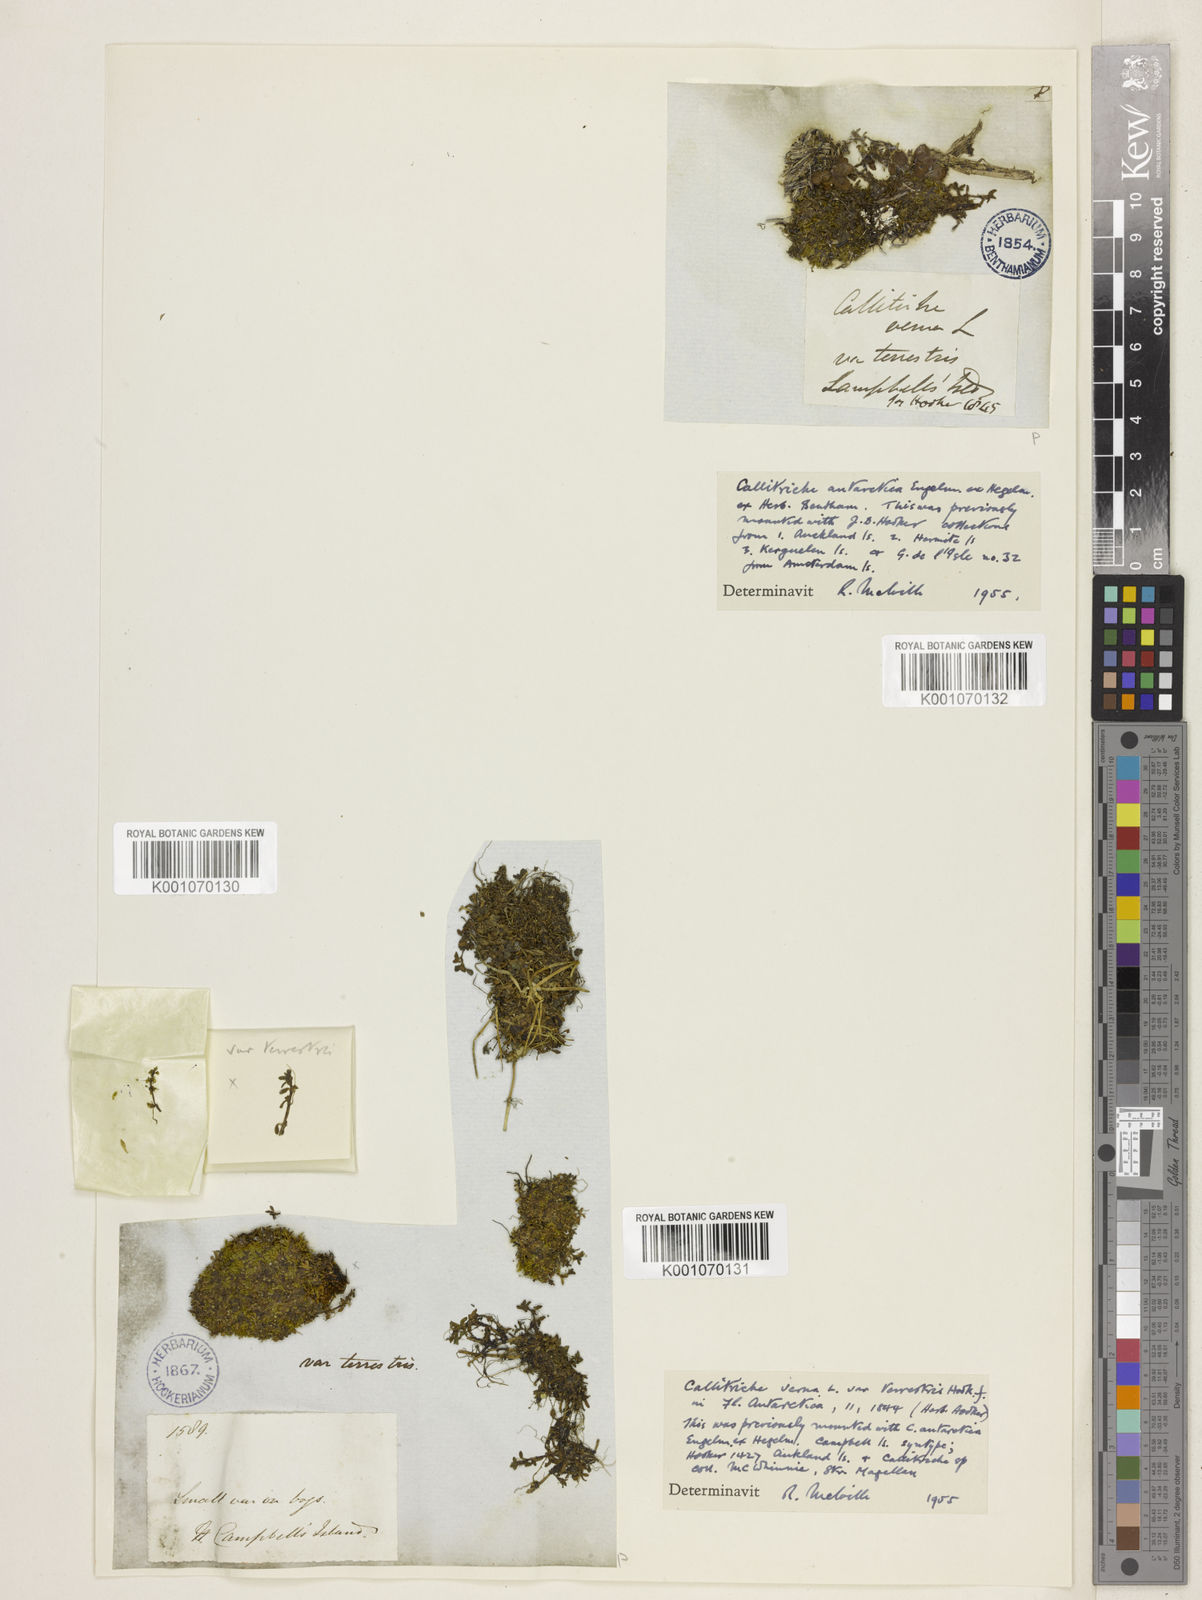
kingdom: Plantae
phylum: Tracheophyta
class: Magnoliopsida
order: Lamiales
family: Plantaginaceae
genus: Callitriche
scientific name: Callitriche antarctica
